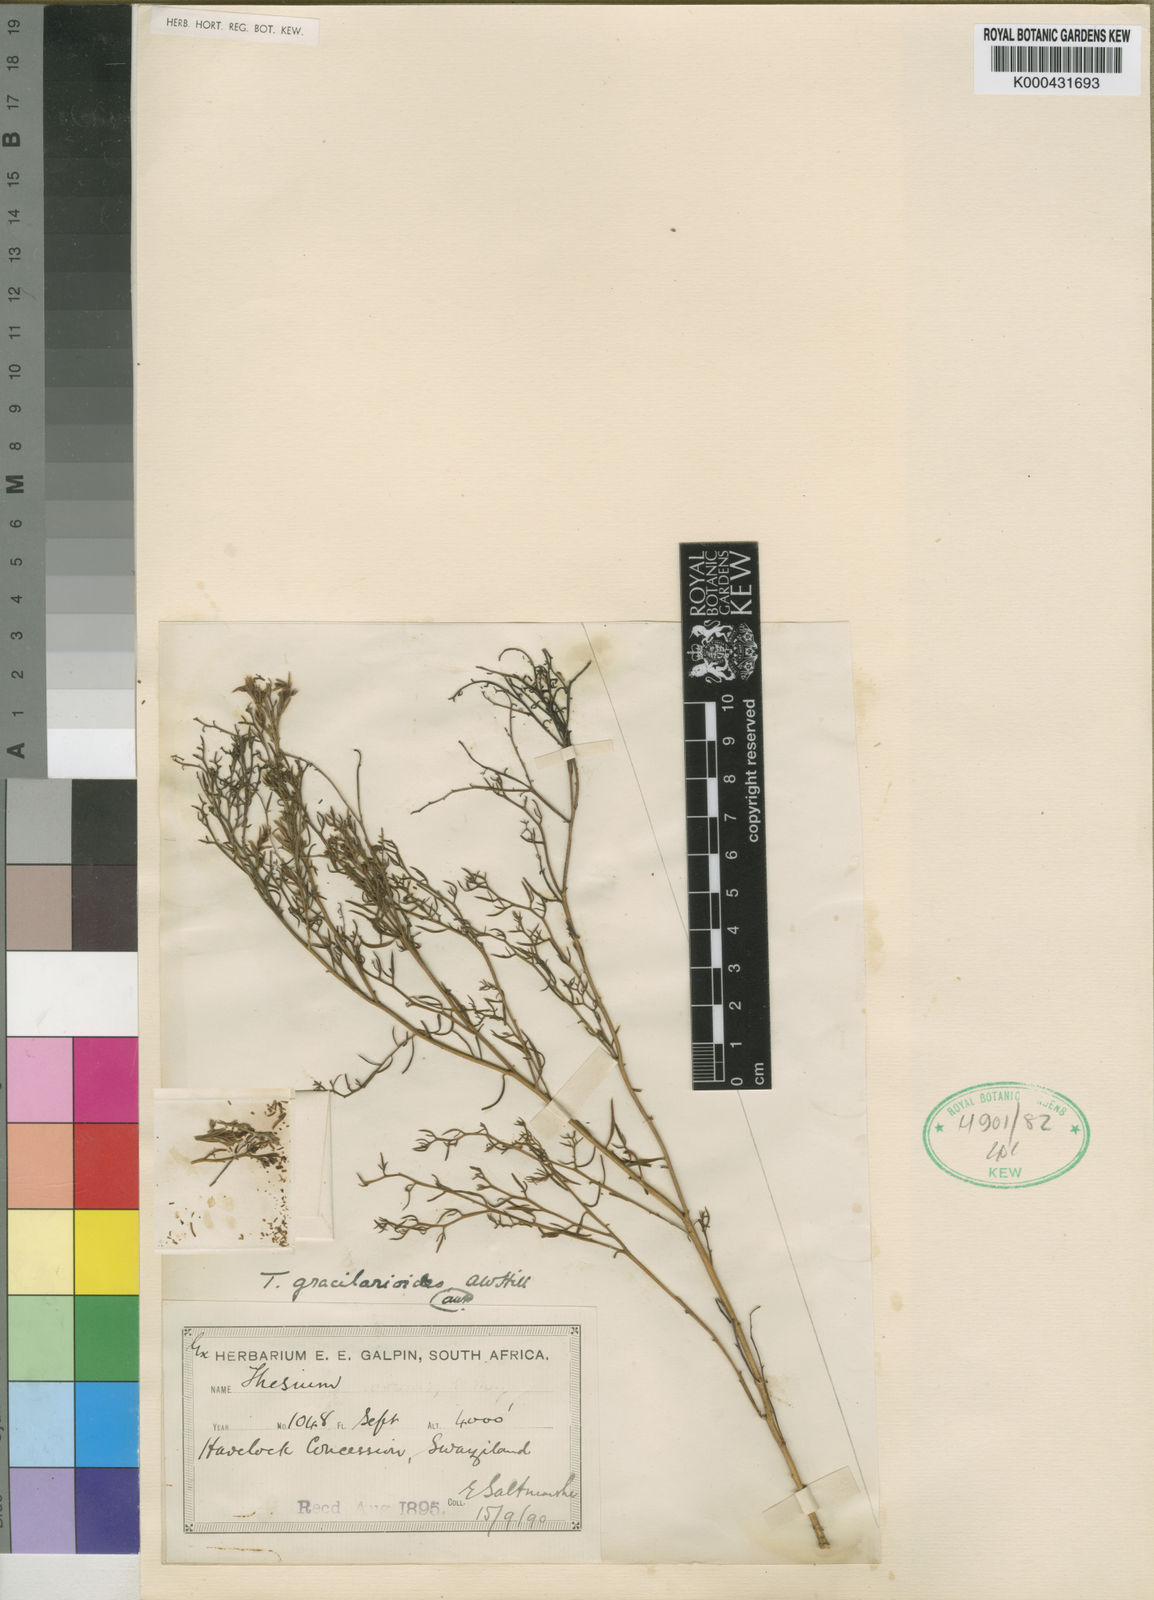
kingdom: Plantae
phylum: Tracheophyta
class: Magnoliopsida
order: Santalales
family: Thesiaceae
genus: Thesium
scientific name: Thesium gracilarioides
